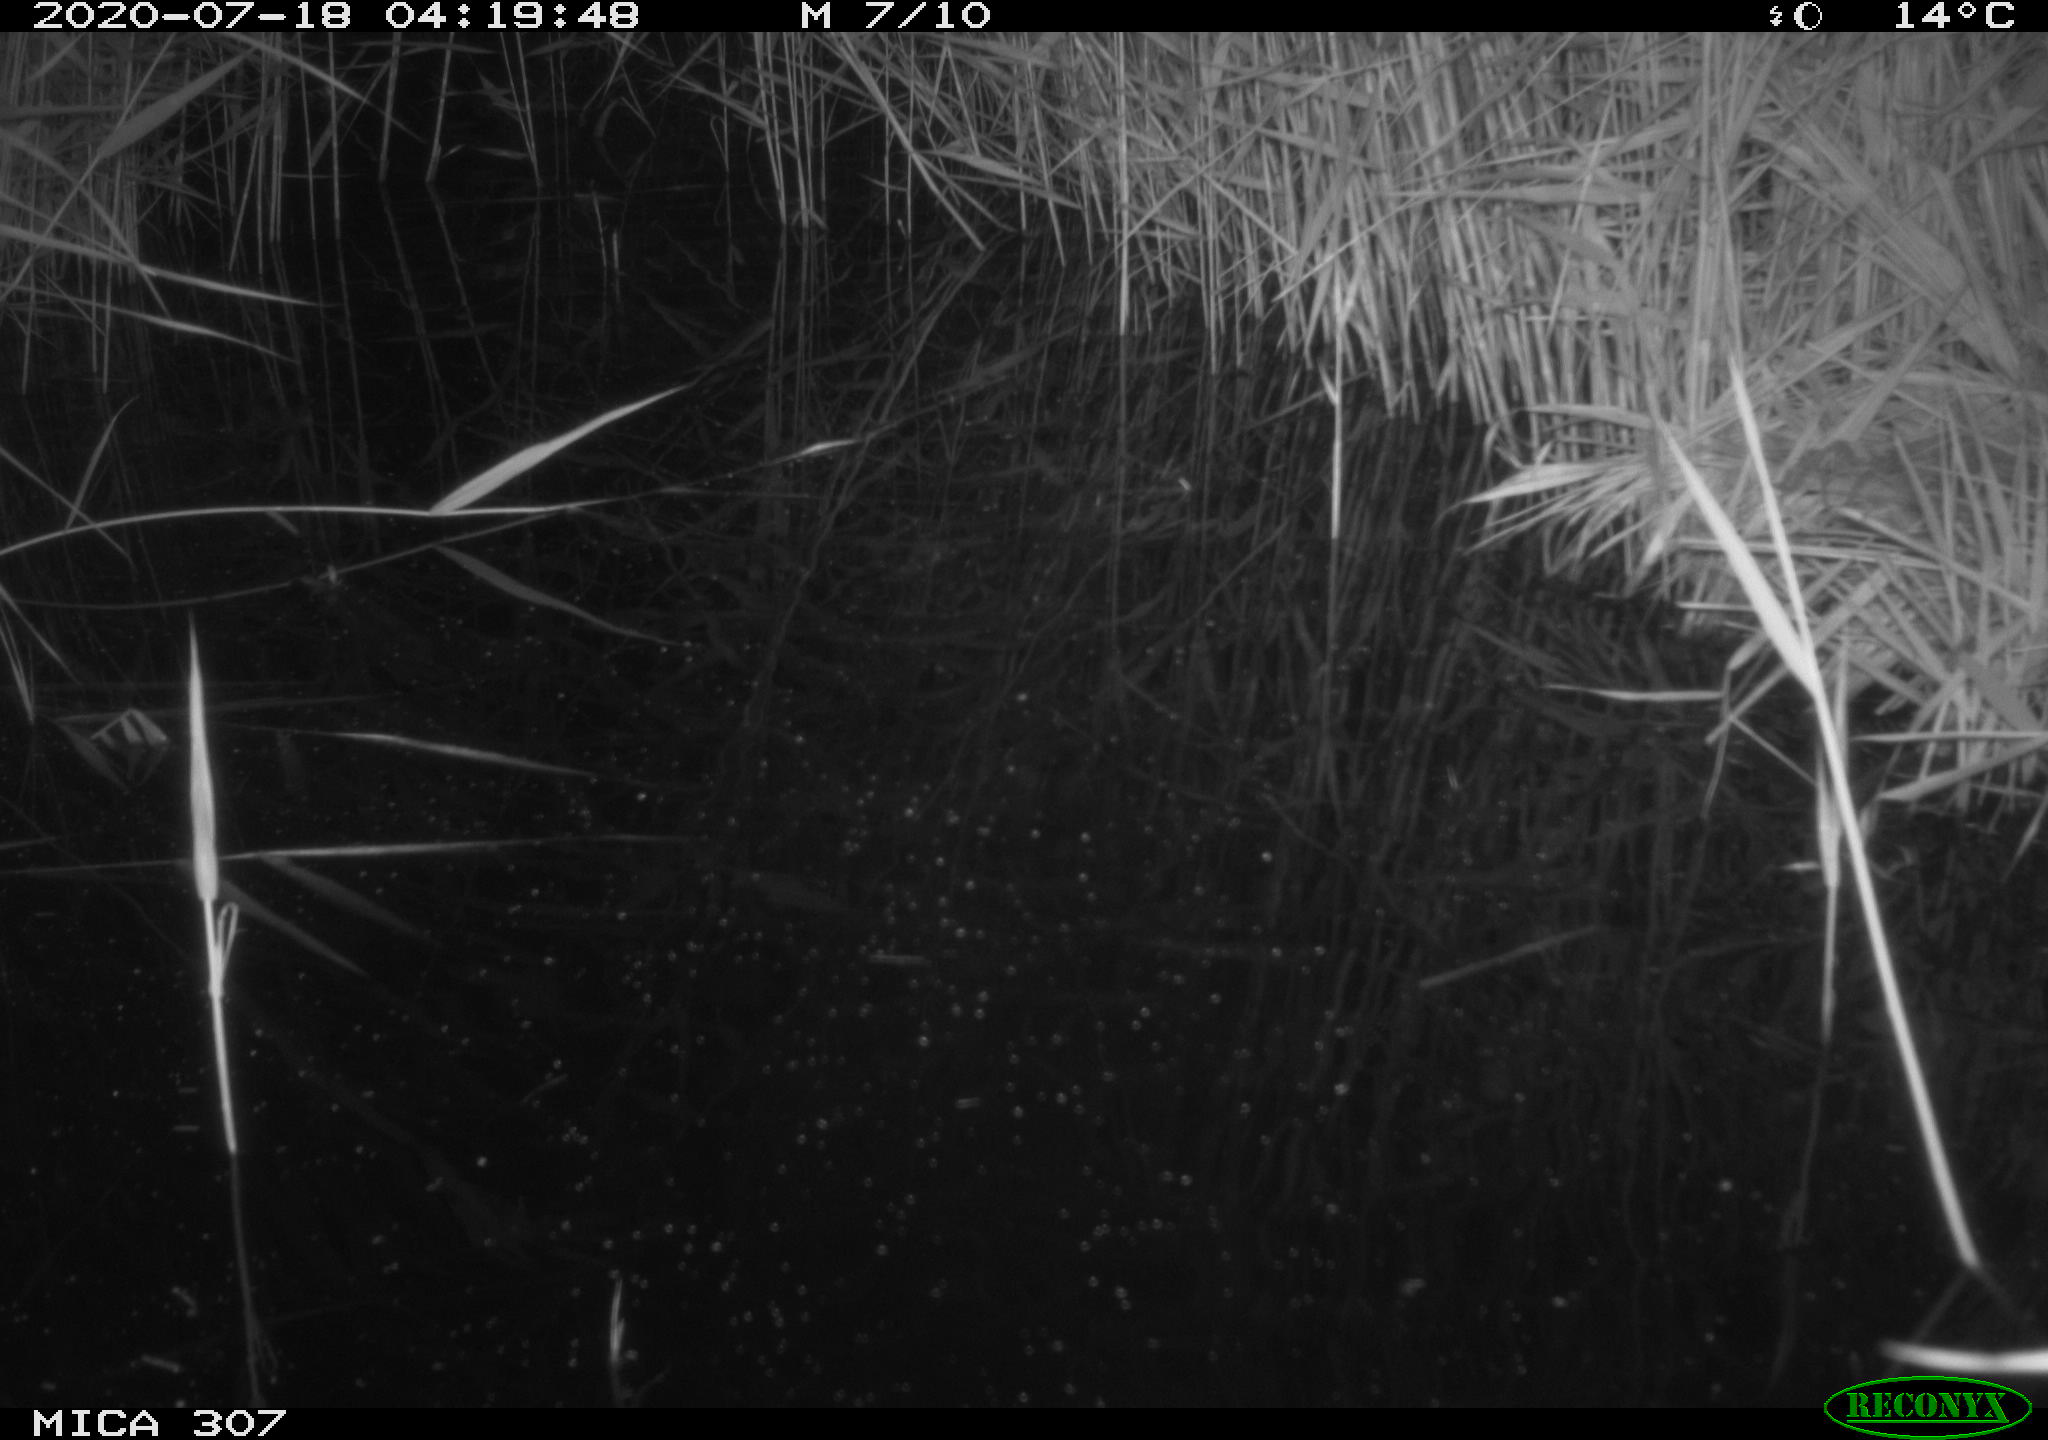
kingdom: Animalia
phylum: Chordata
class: Mammalia
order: Rodentia
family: Muridae
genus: Rattus
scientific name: Rattus norvegicus
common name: Brown rat
